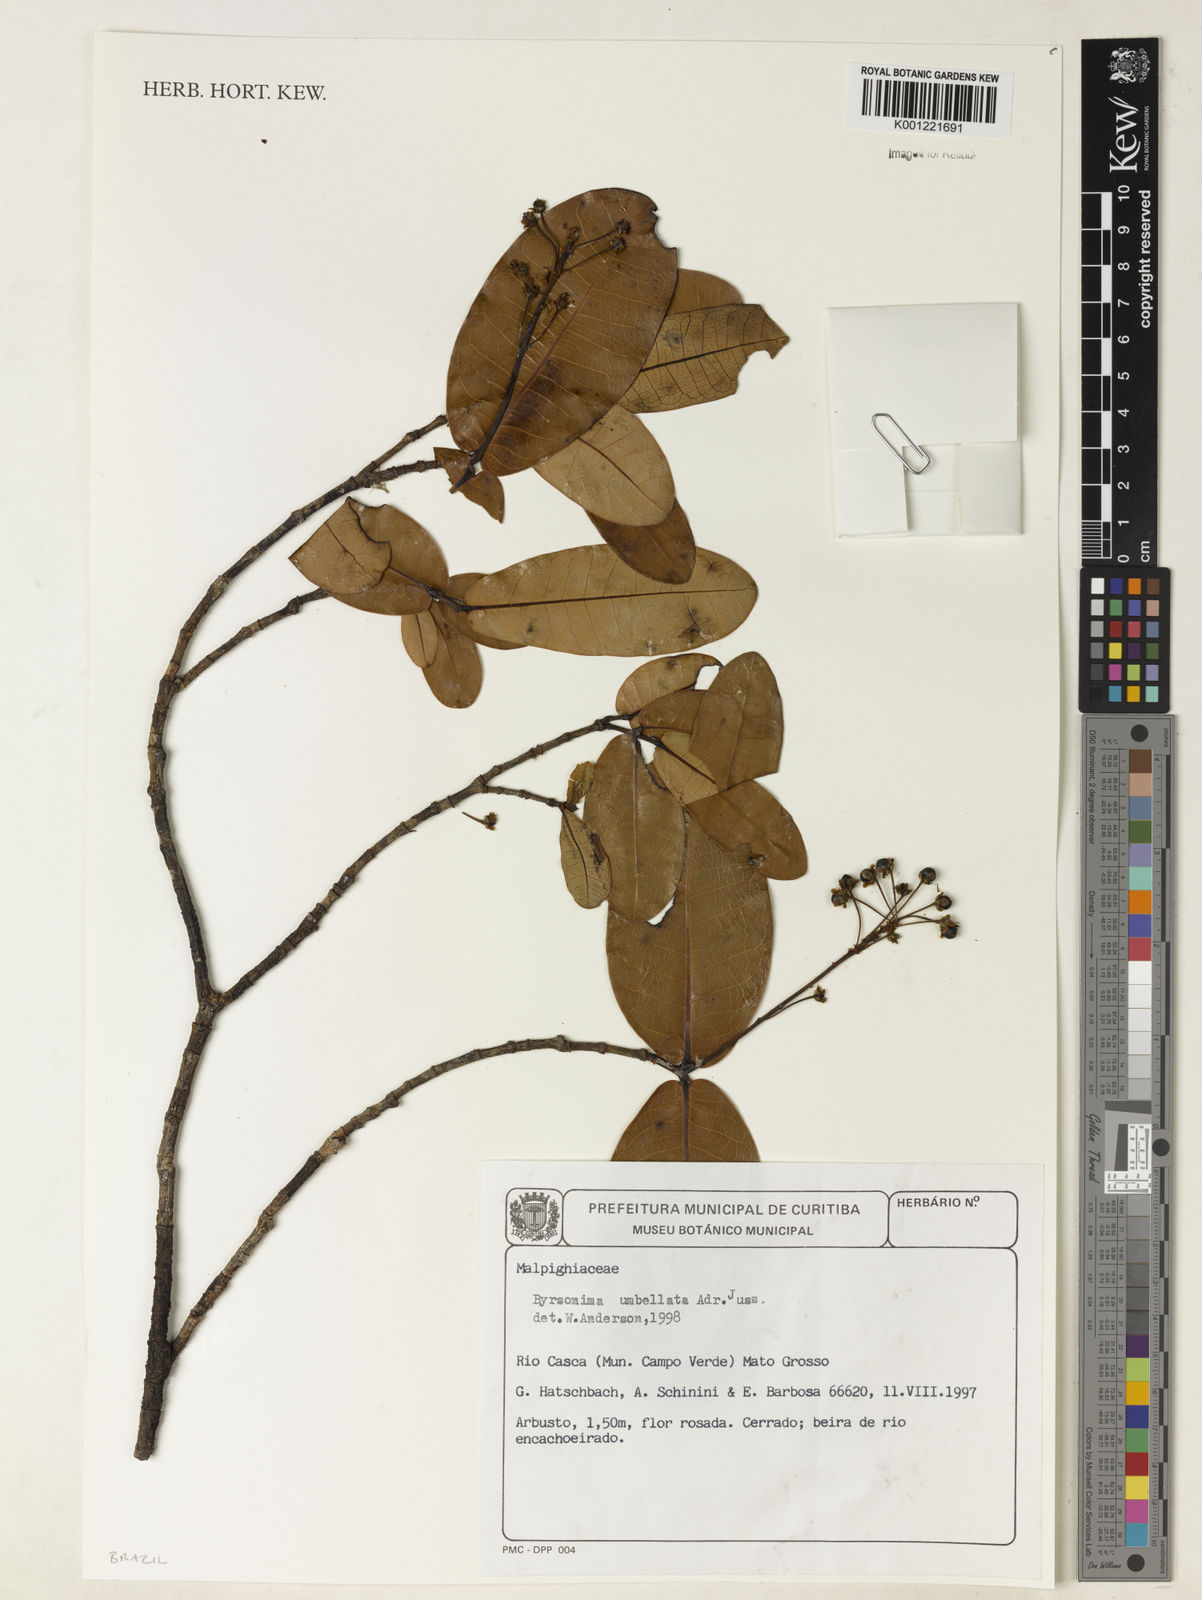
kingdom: Plantae
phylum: Tracheophyta
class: Magnoliopsida
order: Malpighiales
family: Malpighiaceae
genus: Byrsonima
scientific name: Byrsonima umbellata
